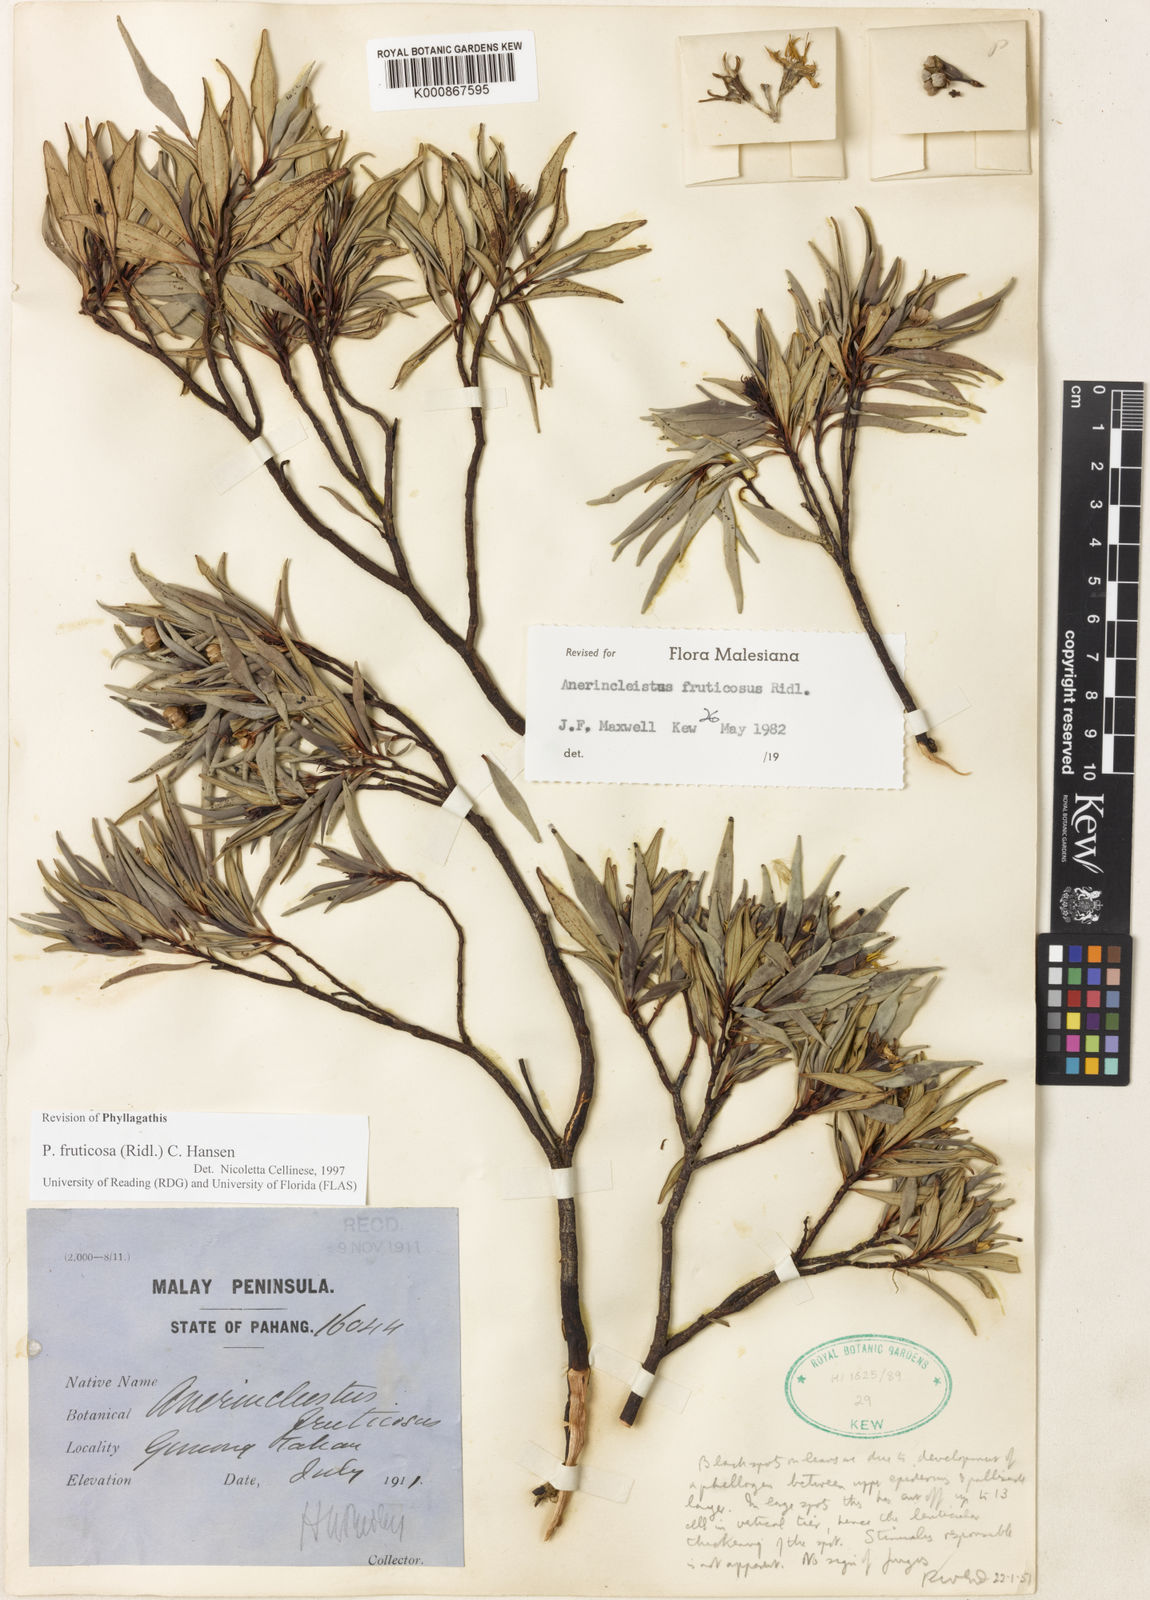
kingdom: Plantae
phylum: Tracheophyta
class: Magnoliopsida
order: Myrtales
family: Melastomataceae
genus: Anerincleistus
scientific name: Anerincleistus fruticosus
